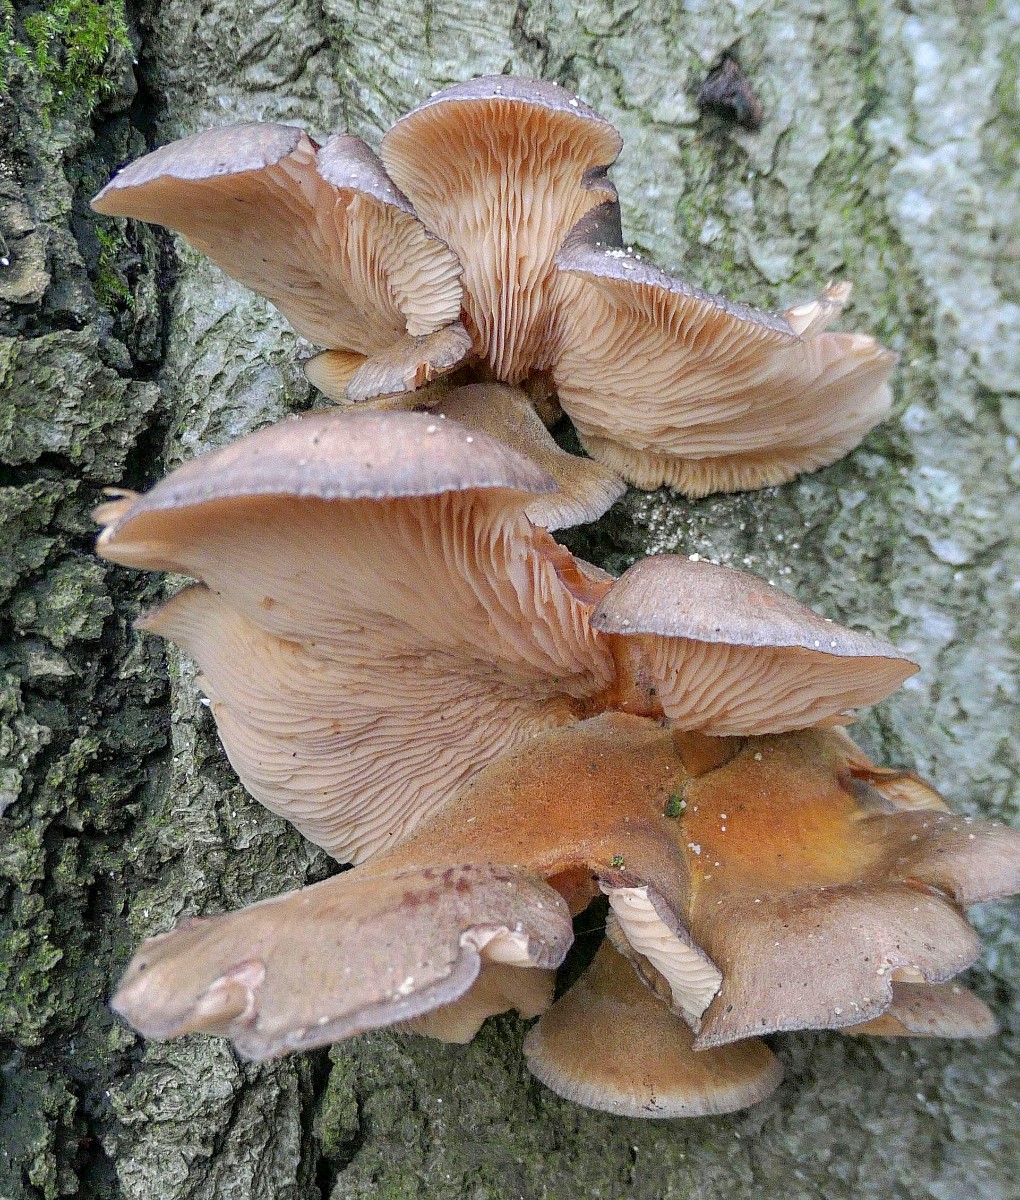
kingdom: Fungi
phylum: Basidiomycota
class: Agaricomycetes
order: Agaricales
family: Sarcomyxaceae
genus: Sarcomyxa
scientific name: Sarcomyxa serotina
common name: gummihat
